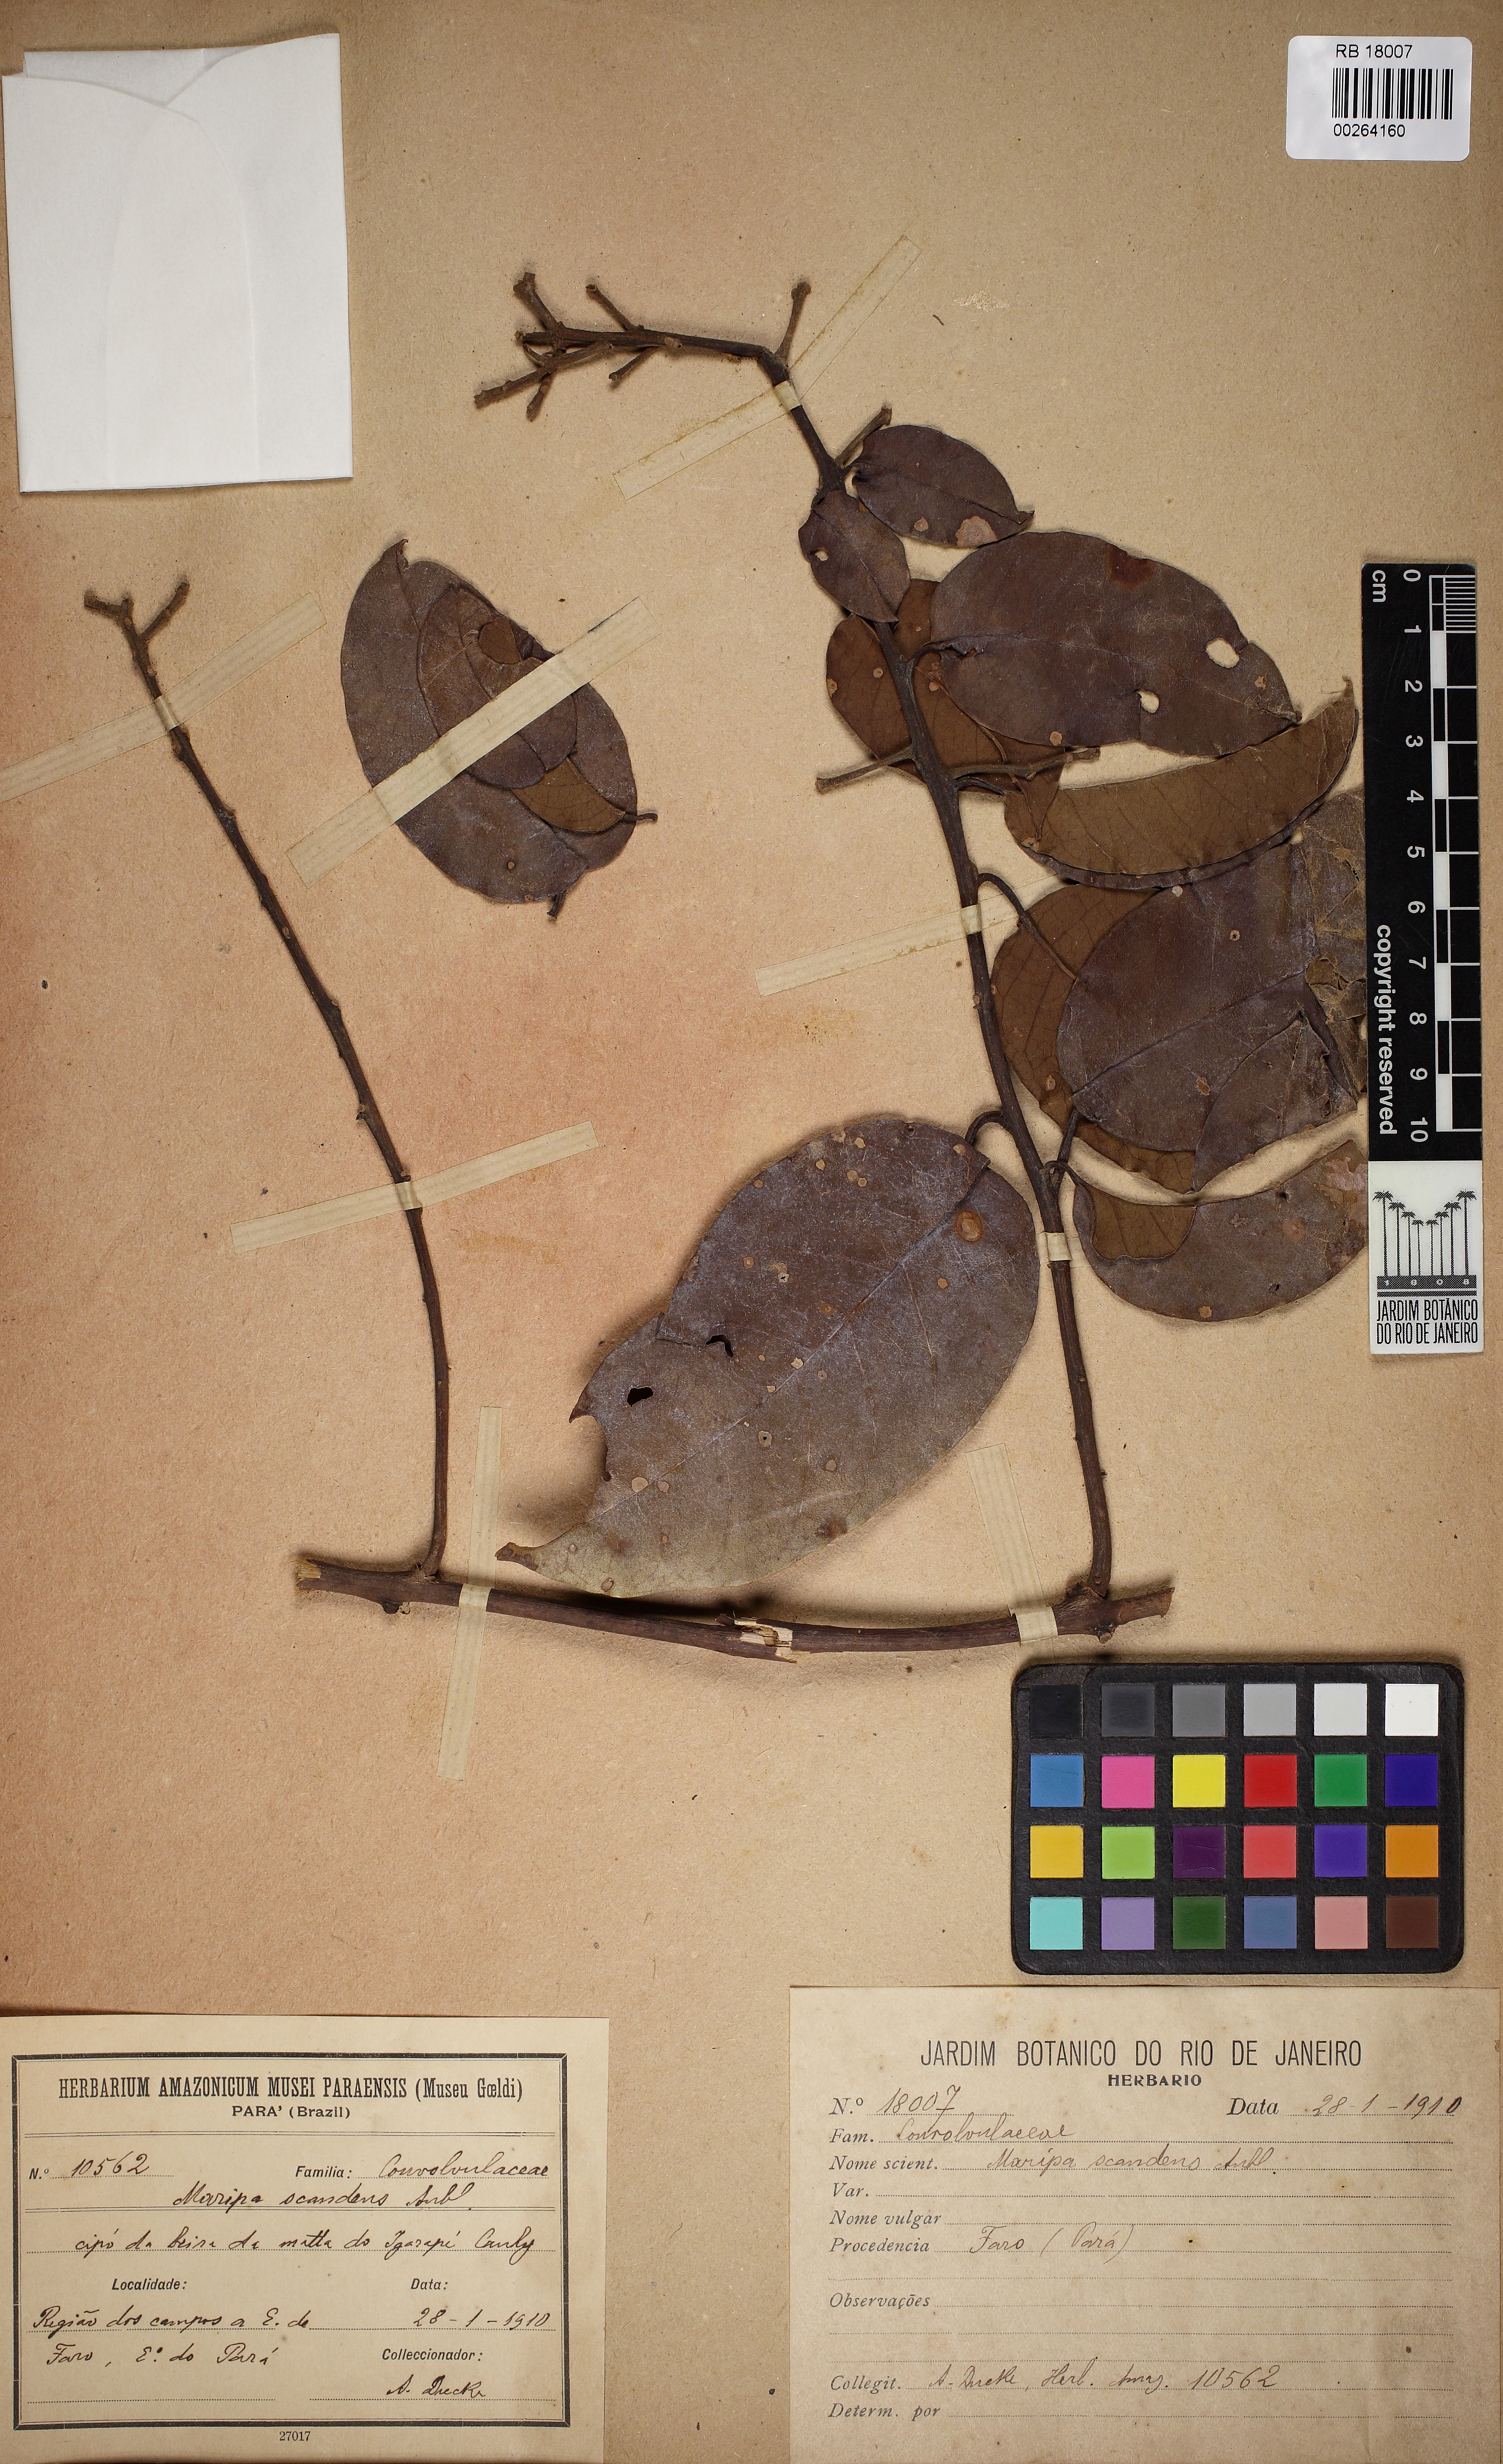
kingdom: Plantae
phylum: Tracheophyta
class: Magnoliopsida
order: Solanales
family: Convolvulaceae
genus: Maripa
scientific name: Maripa scandens
